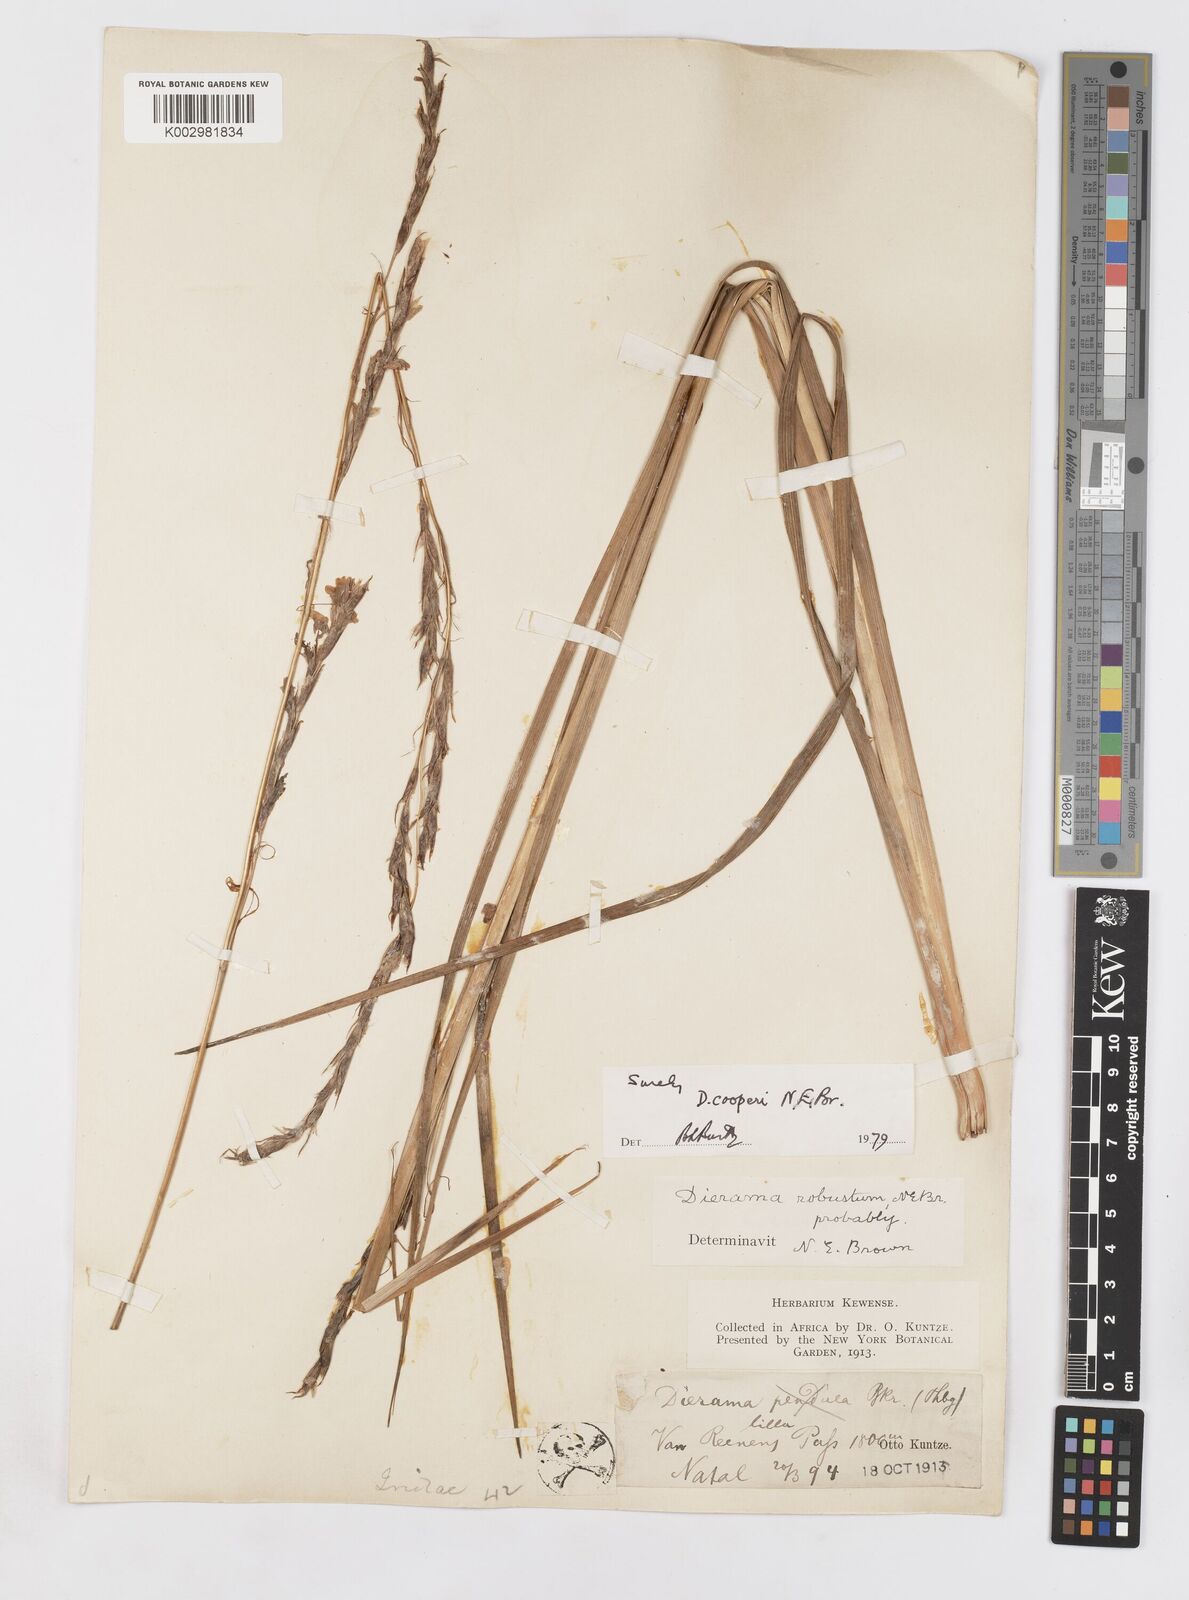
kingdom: Plantae
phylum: Tracheophyta
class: Liliopsida
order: Asparagales
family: Iridaceae
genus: Dierama
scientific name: Dierama cooperi
